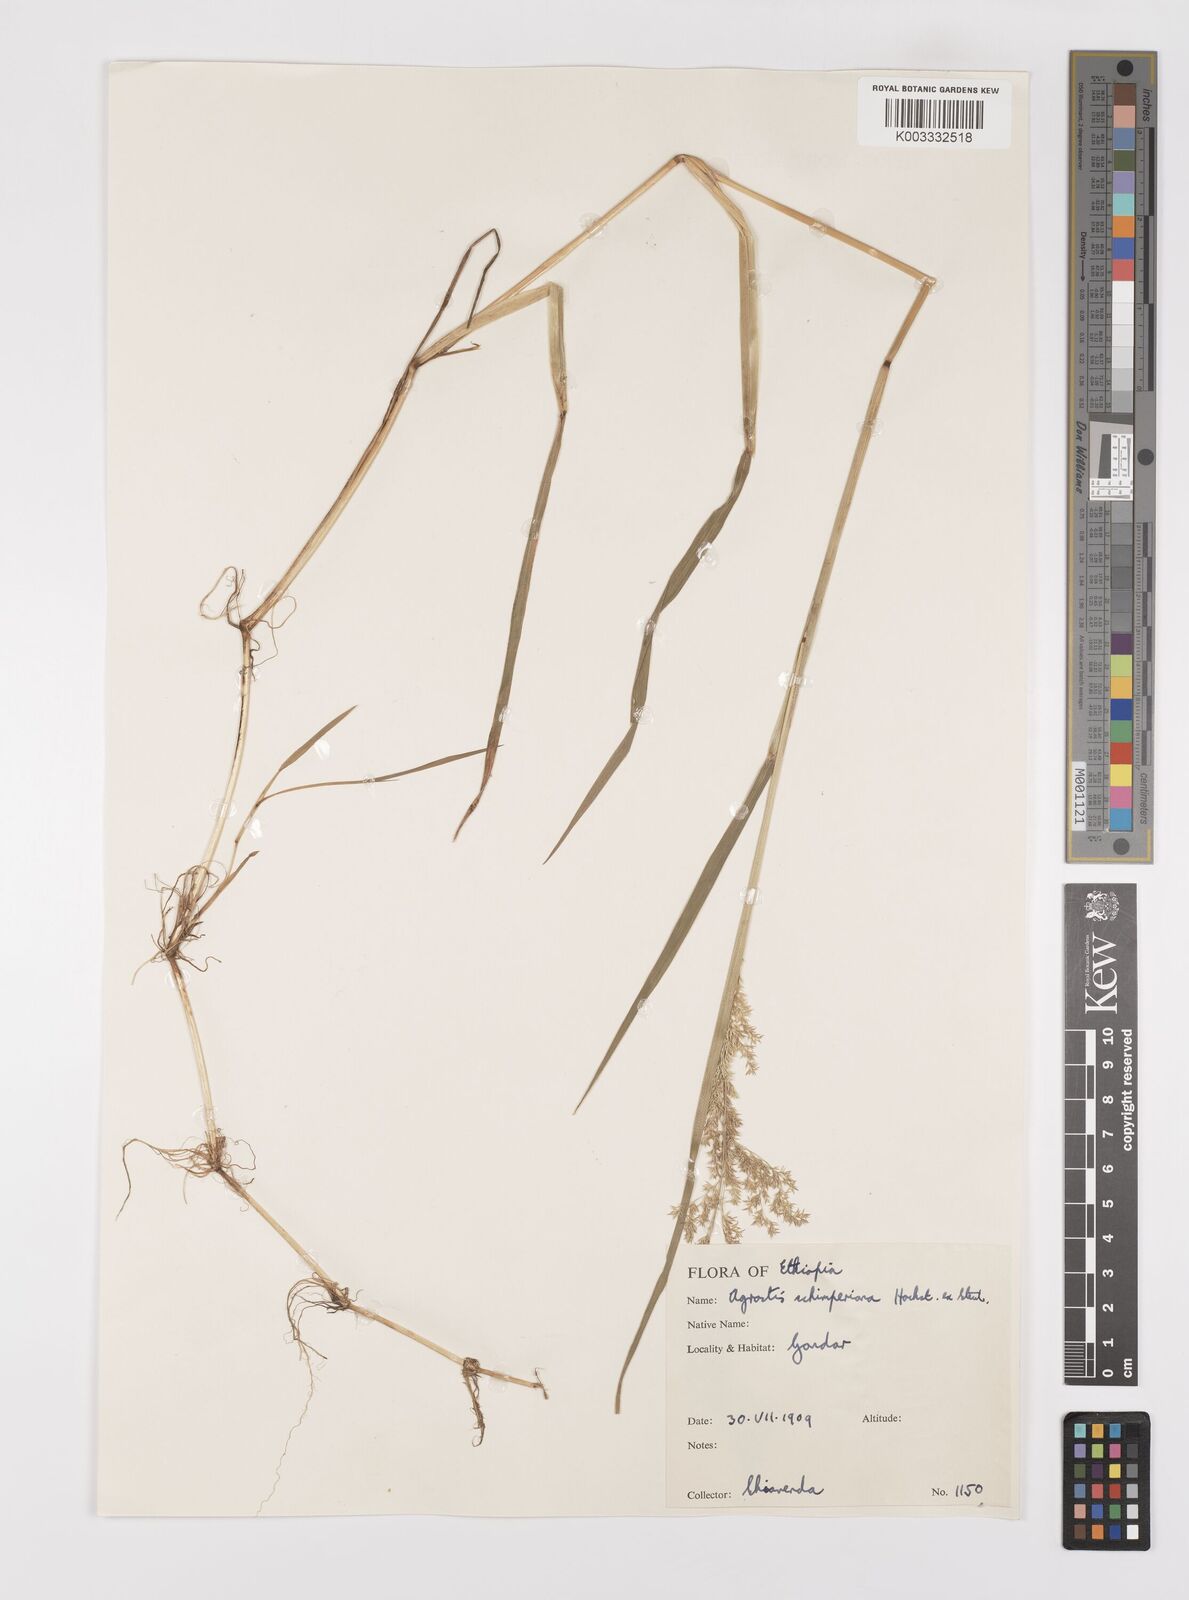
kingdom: Plantae
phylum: Tracheophyta
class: Liliopsida
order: Poales
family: Poaceae
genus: Polypogon
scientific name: Polypogon schimperianus
